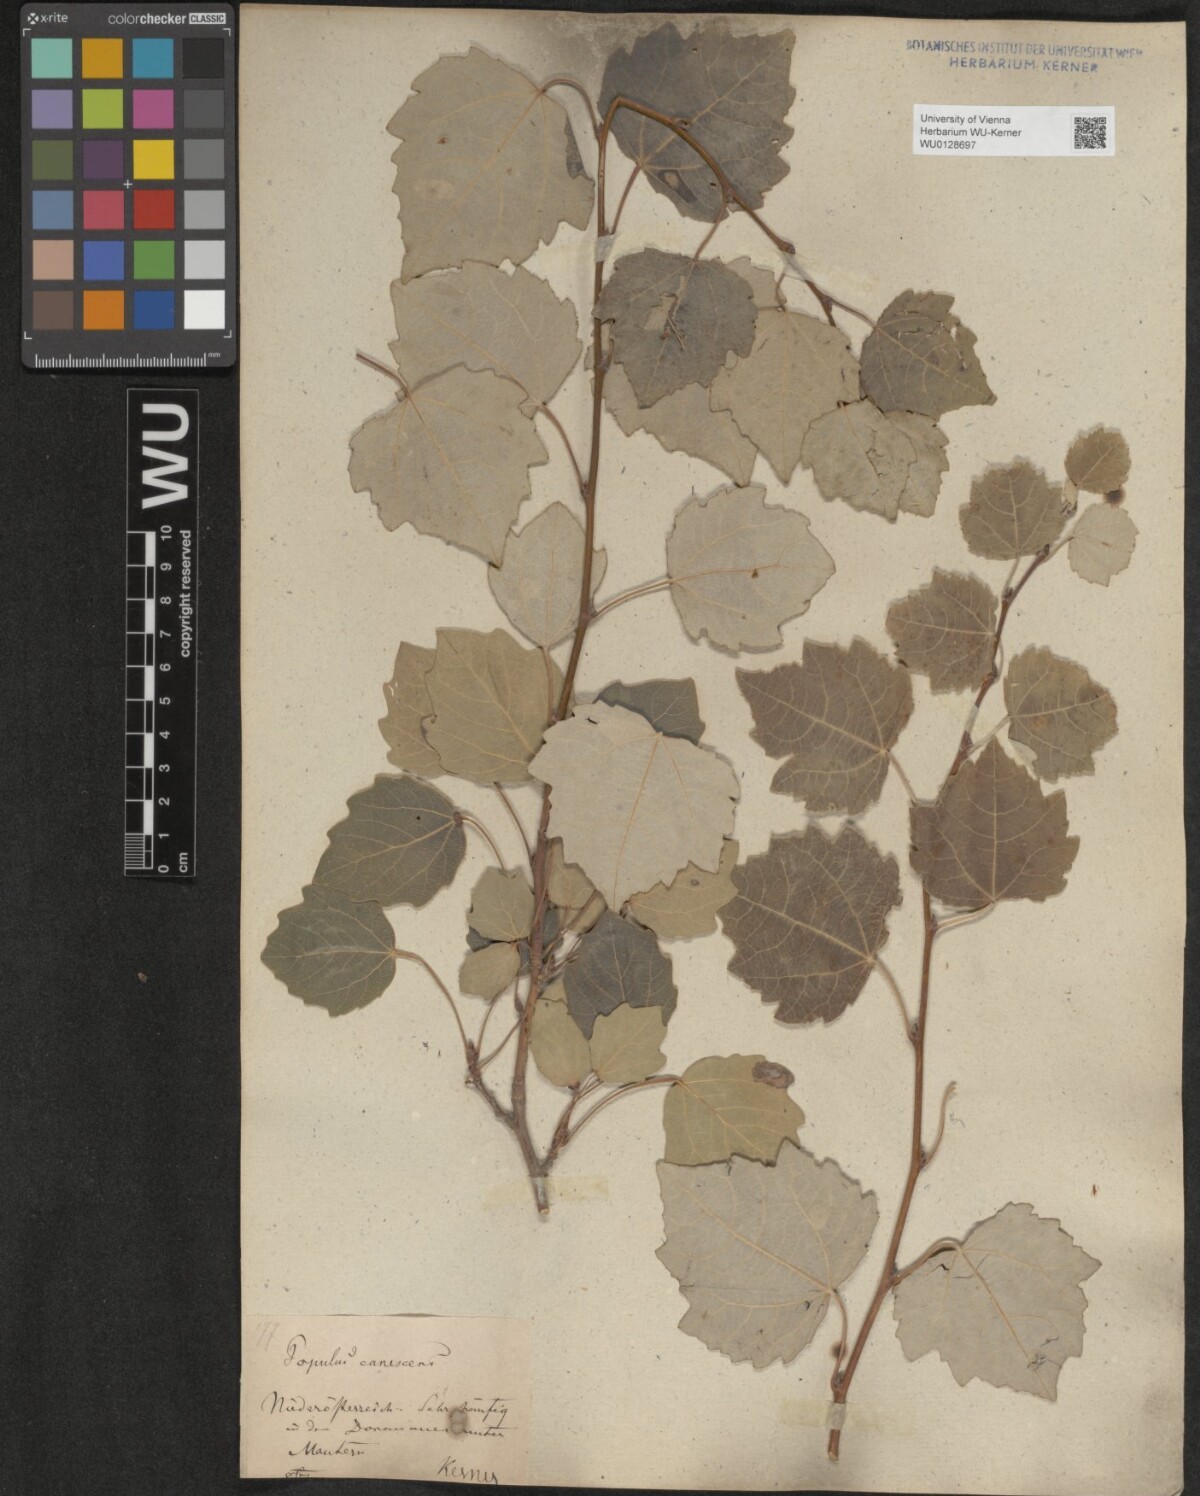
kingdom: Plantae
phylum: Tracheophyta
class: Magnoliopsida
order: Malpighiales
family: Salicaceae
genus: Populus
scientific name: Populus canescens
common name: Gray poplar
